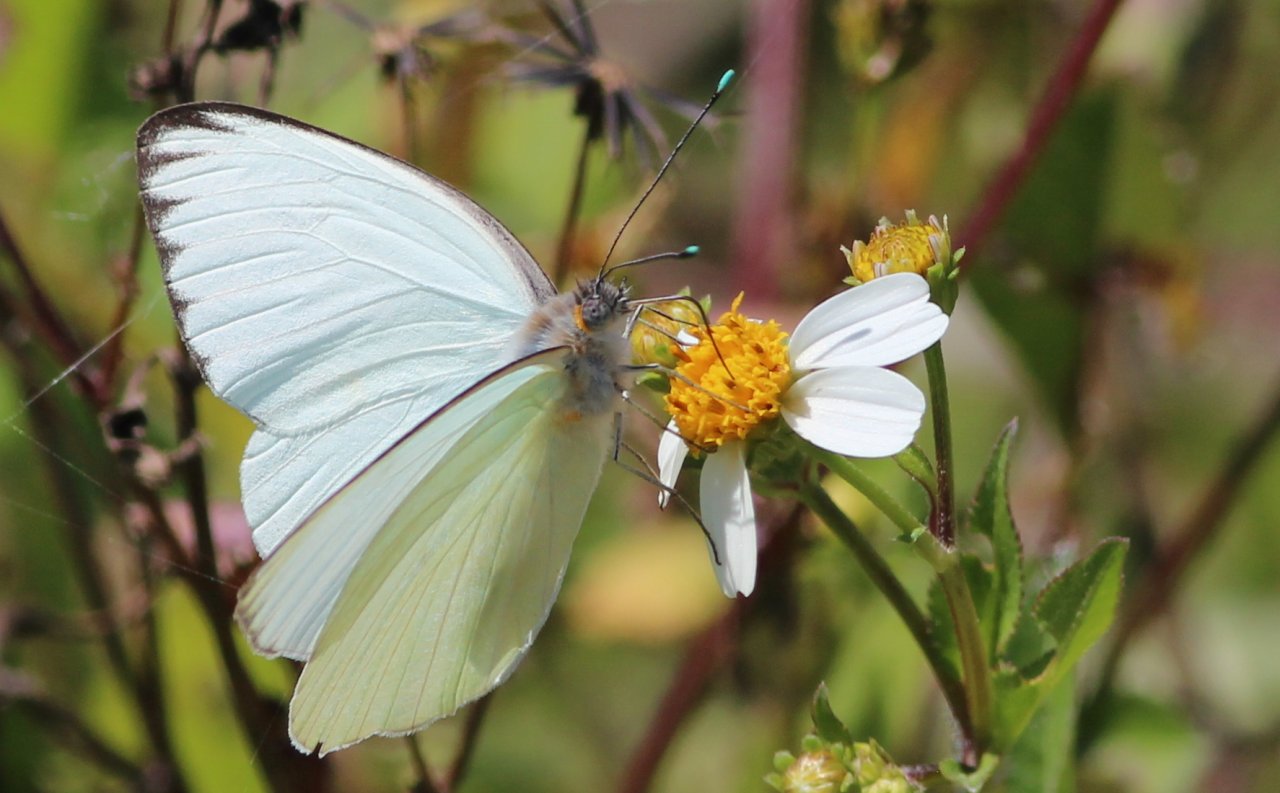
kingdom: Animalia
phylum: Arthropoda
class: Insecta
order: Lepidoptera
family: Pieridae
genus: Ascia
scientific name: Ascia monuste
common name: Great Southern White
